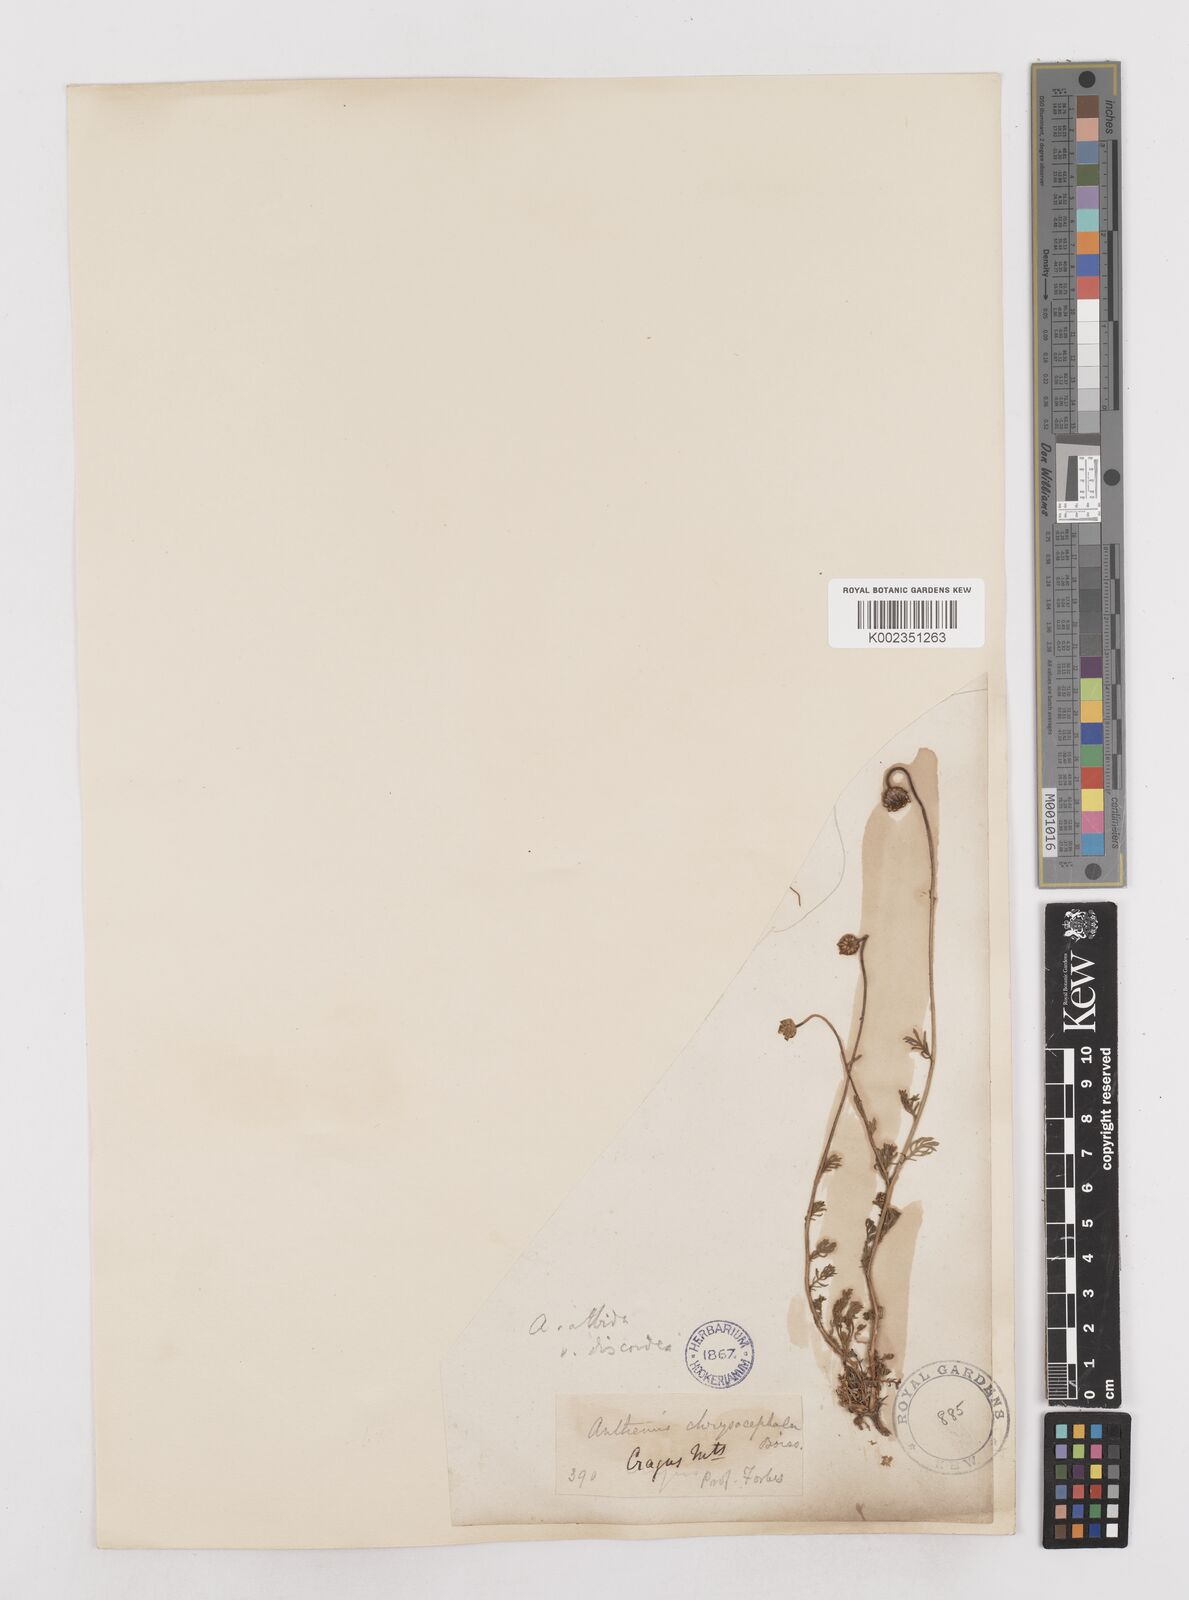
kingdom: Plantae
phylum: Tracheophyta
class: Magnoliopsida
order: Asterales
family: Asteraceae
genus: Anthemis
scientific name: Anthemis cretica
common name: Mountain dog-daisy
